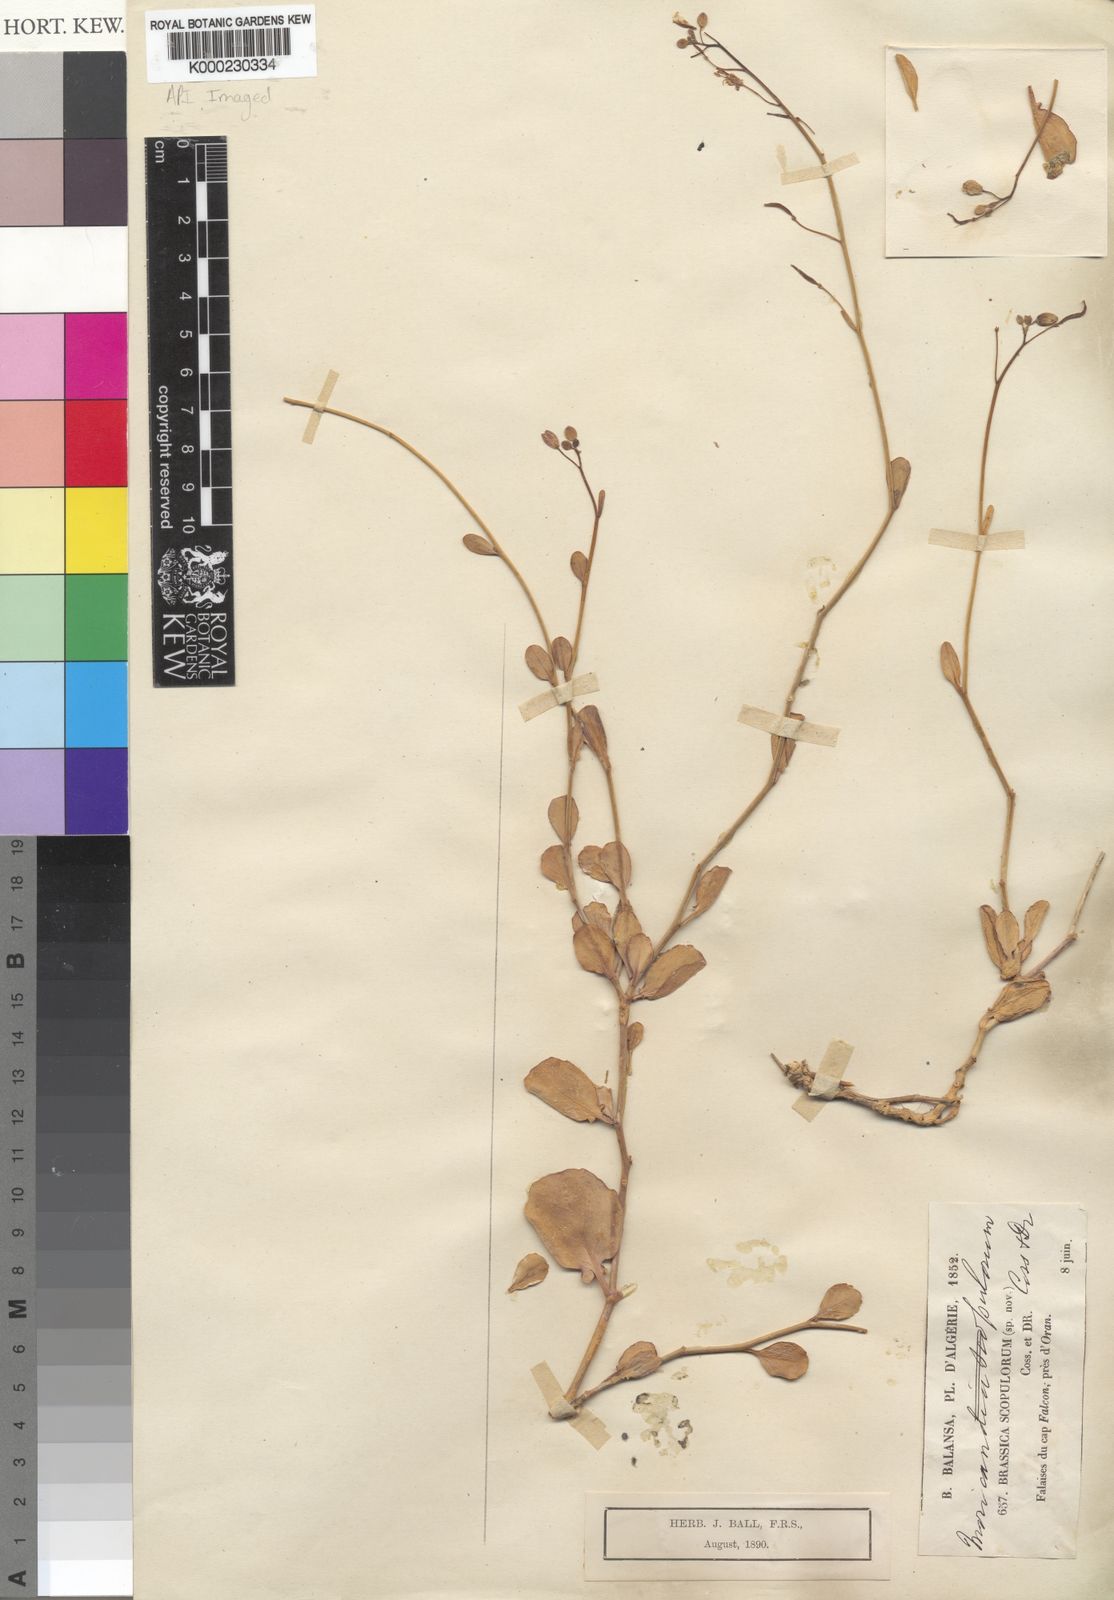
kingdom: Plantae
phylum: Tracheophyta
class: Magnoliopsida
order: Brassicales
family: Brassicaceae
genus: Brassica
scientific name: Brassica
